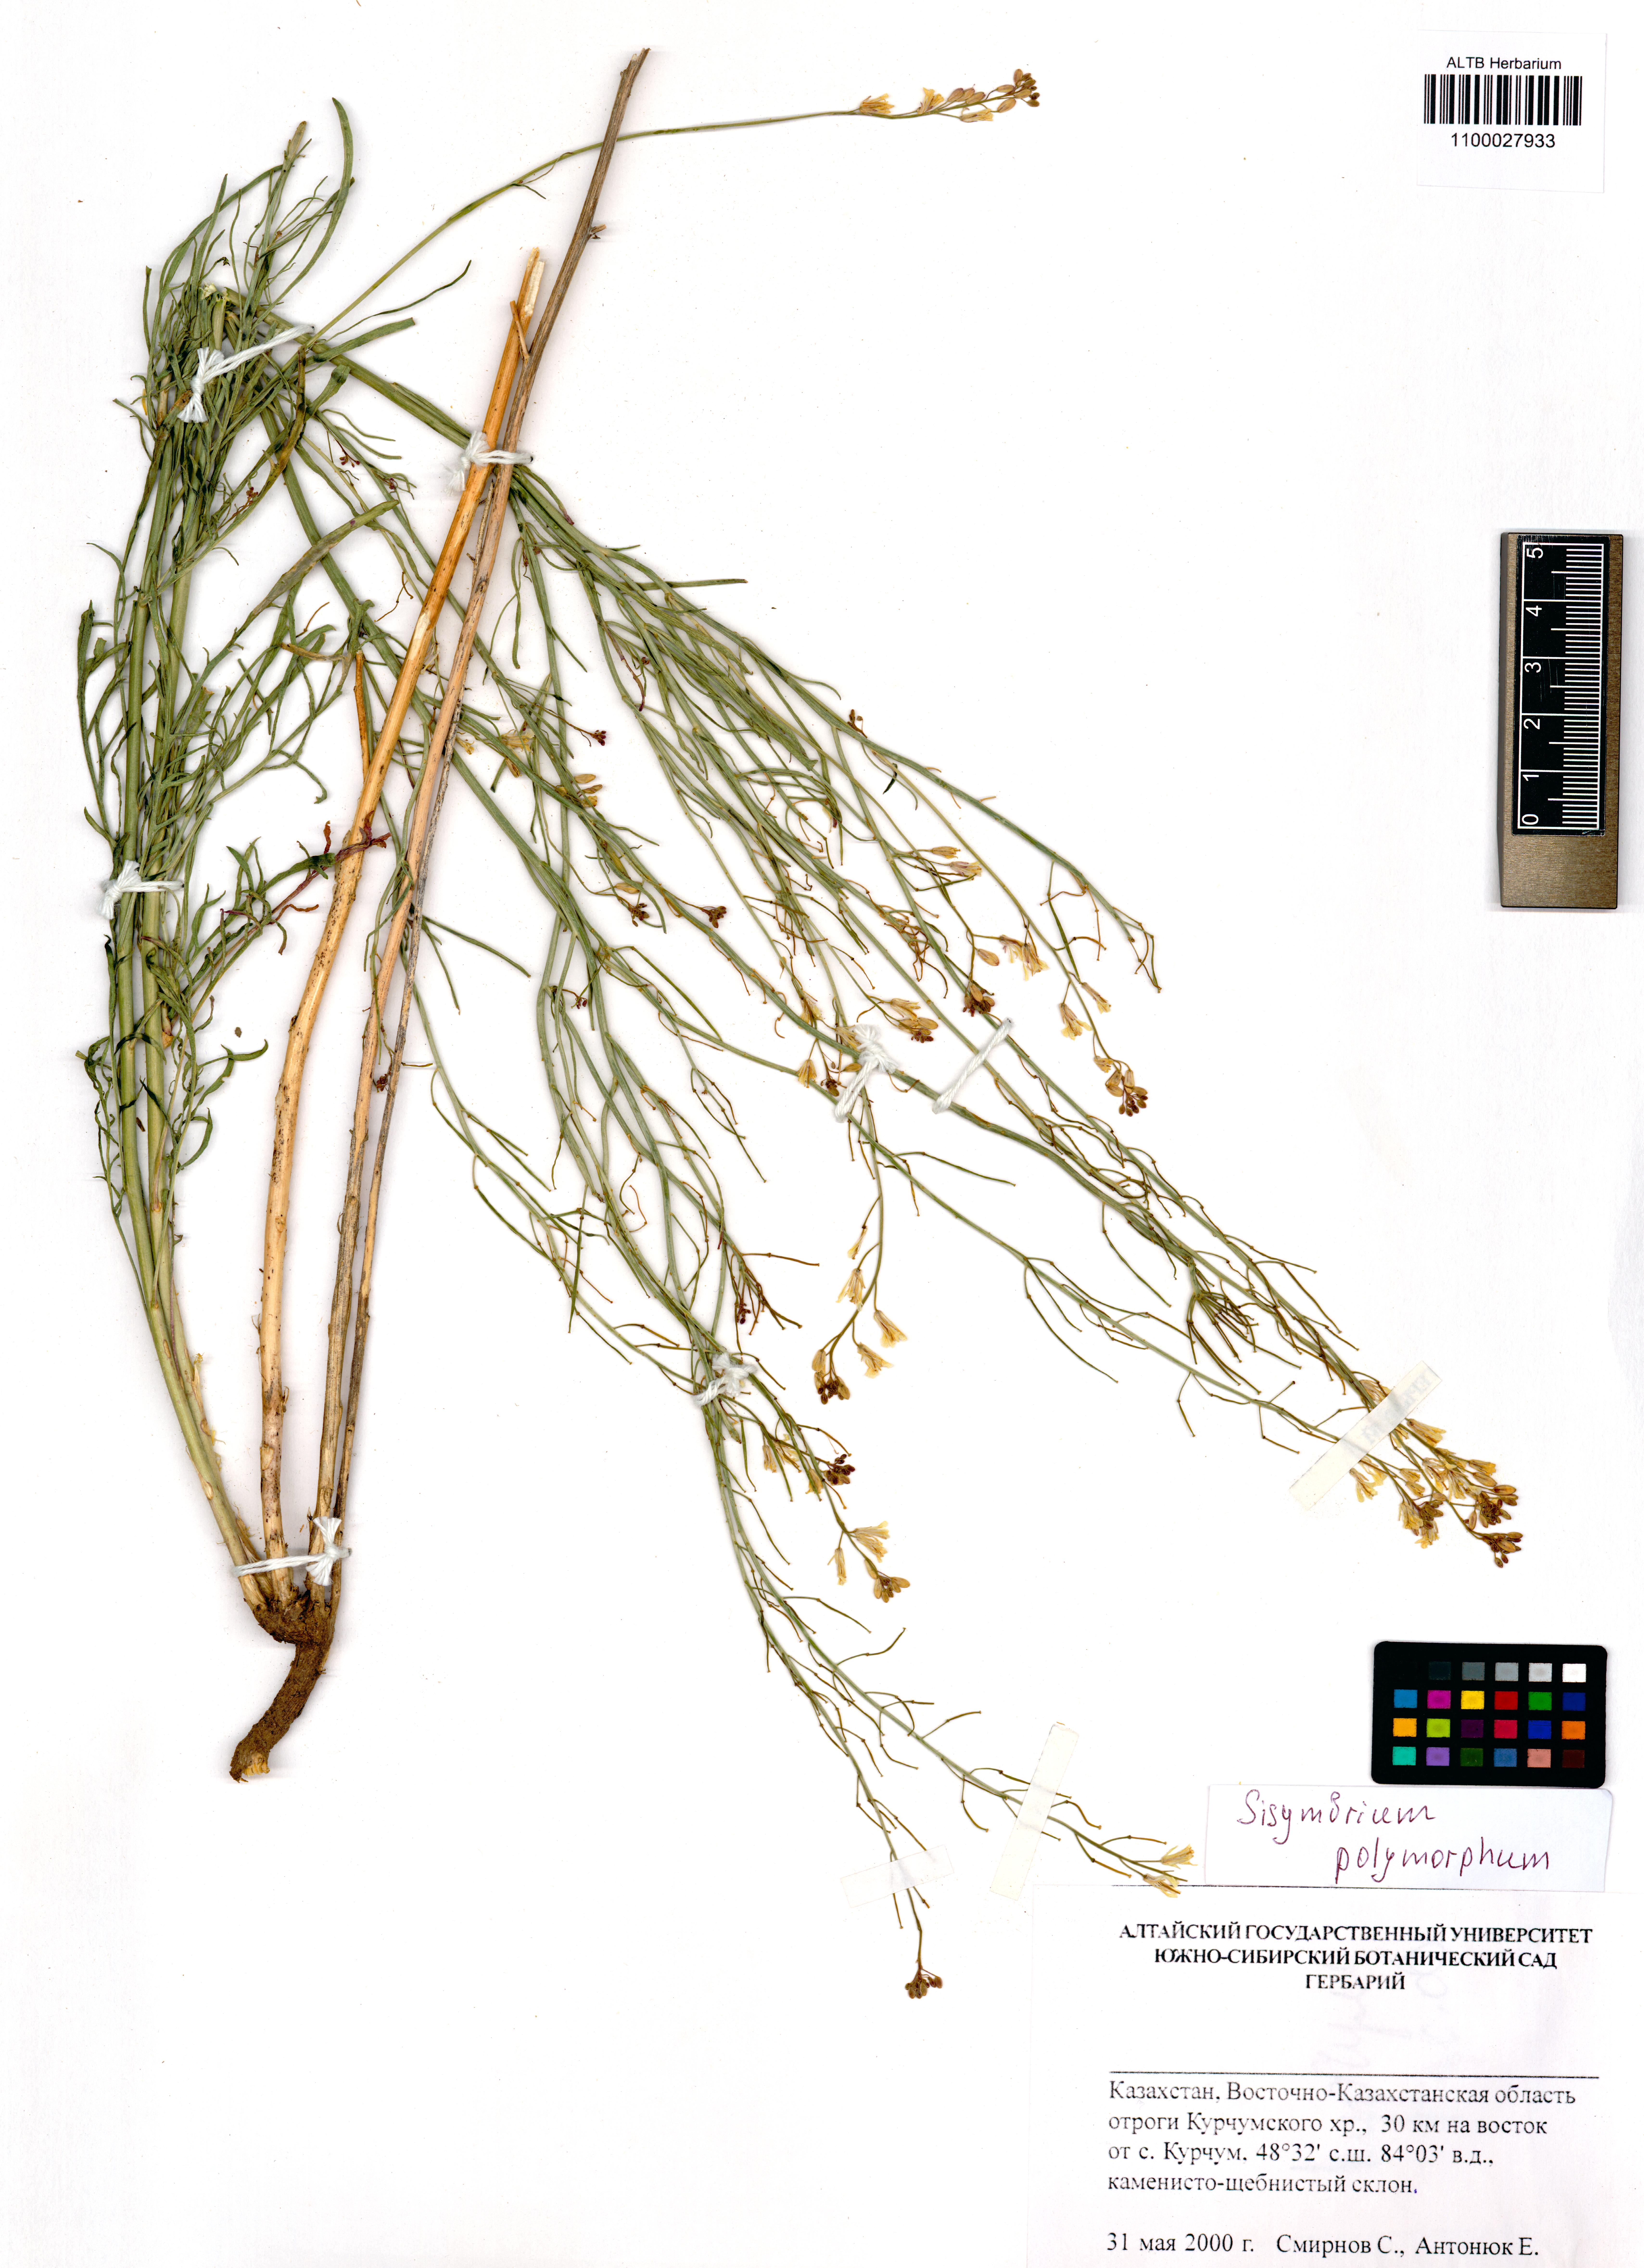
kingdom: Plantae
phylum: Tracheophyta
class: Magnoliopsida
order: Brassicales
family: Brassicaceae
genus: Sisymbrium
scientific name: Sisymbrium polymorphum
